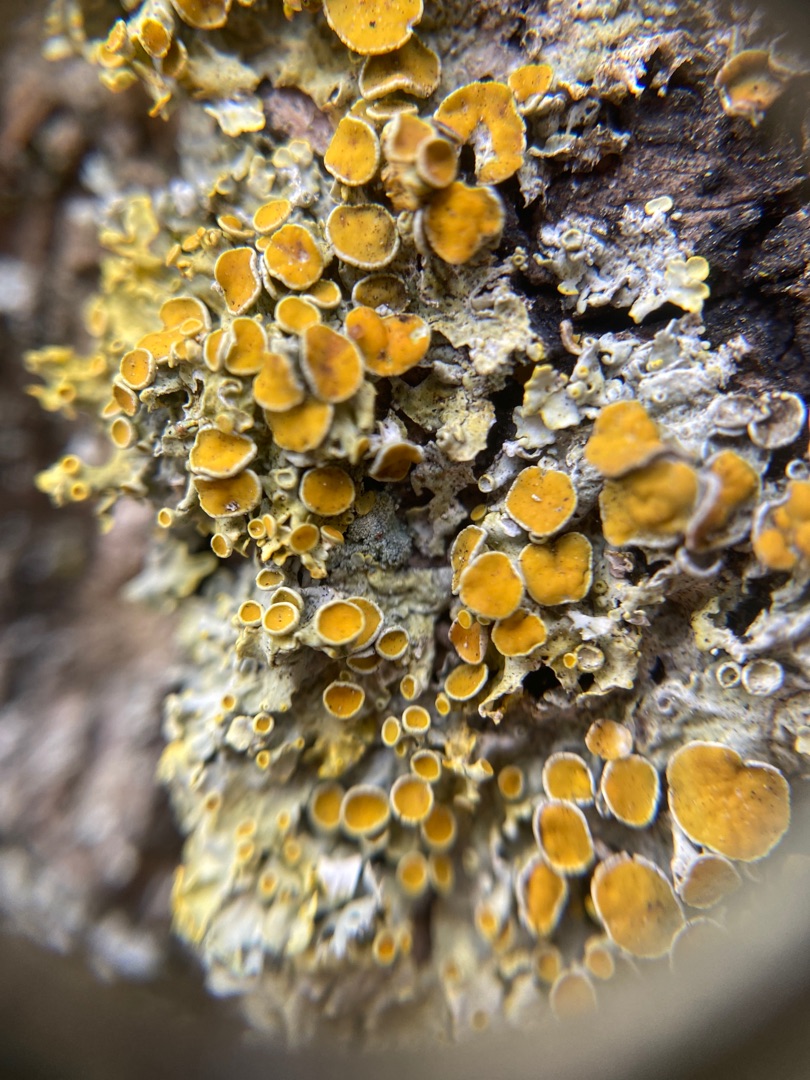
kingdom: Fungi
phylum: Ascomycota
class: Lecanoromycetes
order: Teloschistales
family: Teloschistaceae
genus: Xanthoria
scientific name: Xanthoria parietina
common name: Almindelig væggelav
